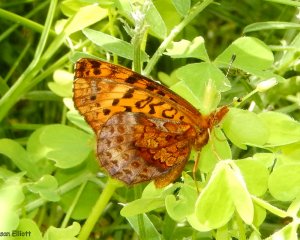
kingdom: Animalia
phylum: Arthropoda
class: Insecta
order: Lepidoptera
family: Nymphalidae
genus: Clossiana
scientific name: Clossiana toddi
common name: Meadow Fritillary
